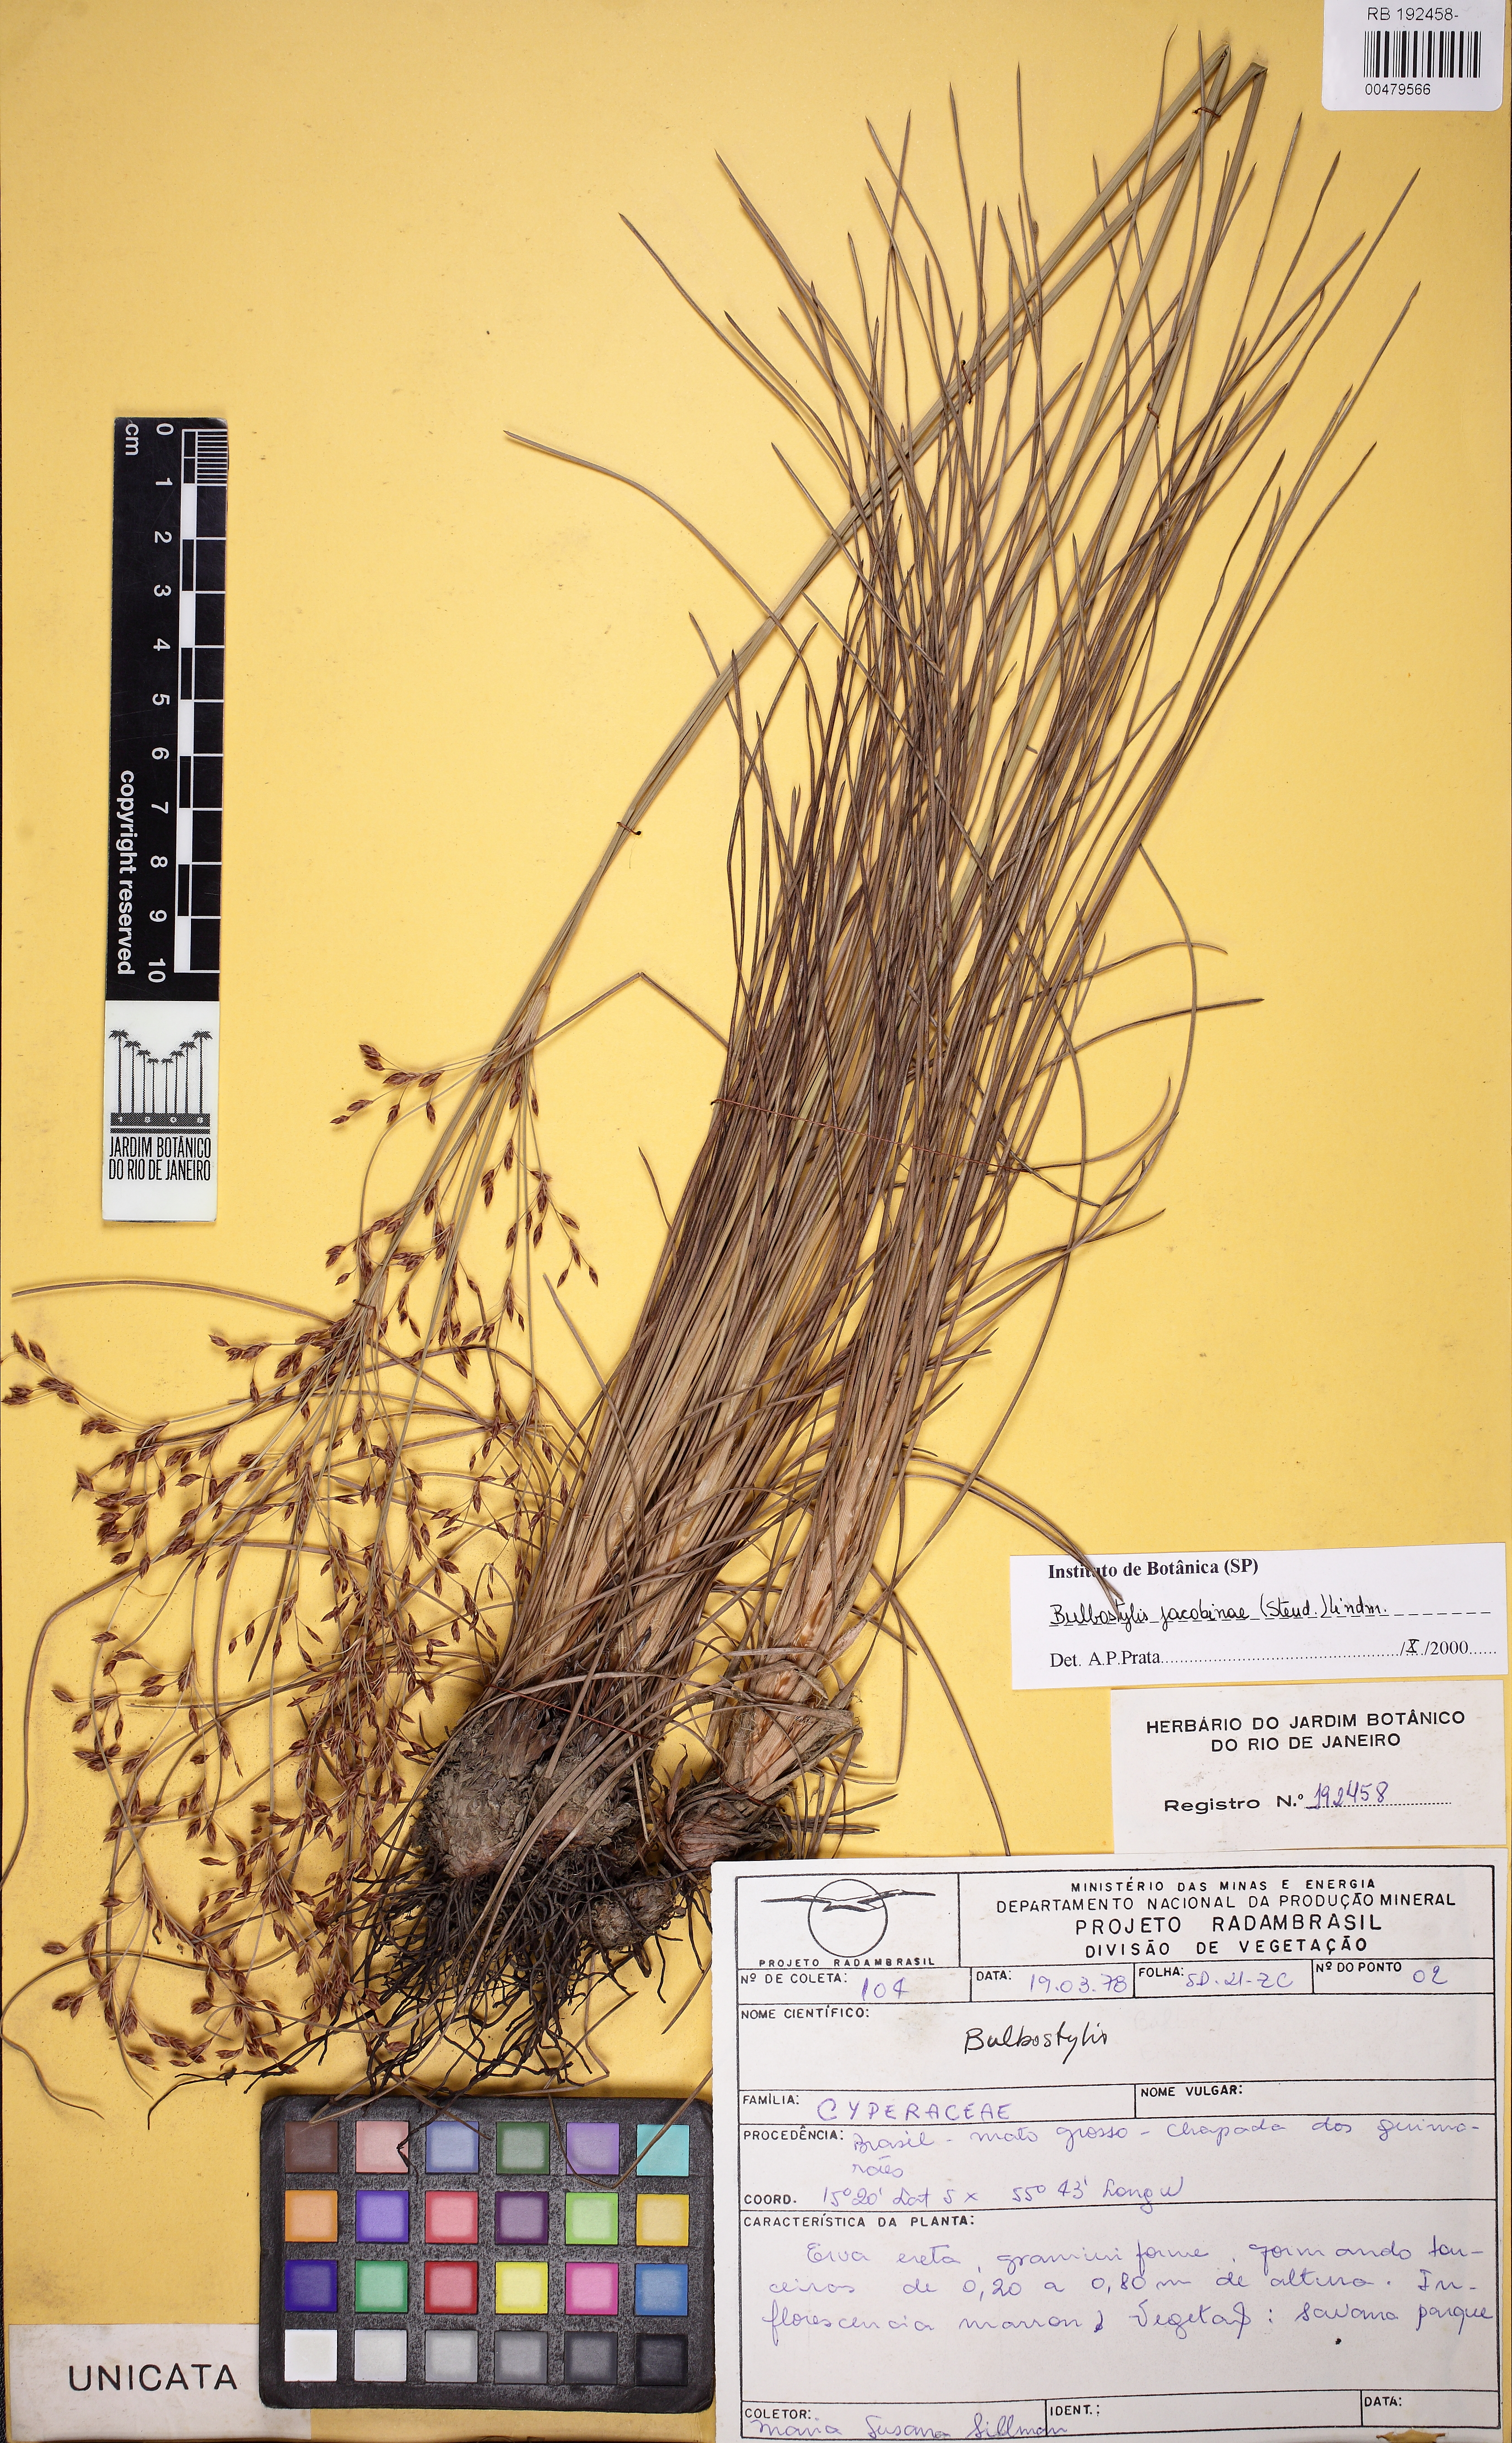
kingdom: Plantae
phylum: Tracheophyta
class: Liliopsida
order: Poales
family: Cyperaceae
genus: Bulbostylis
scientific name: Bulbostylis jacobinae
